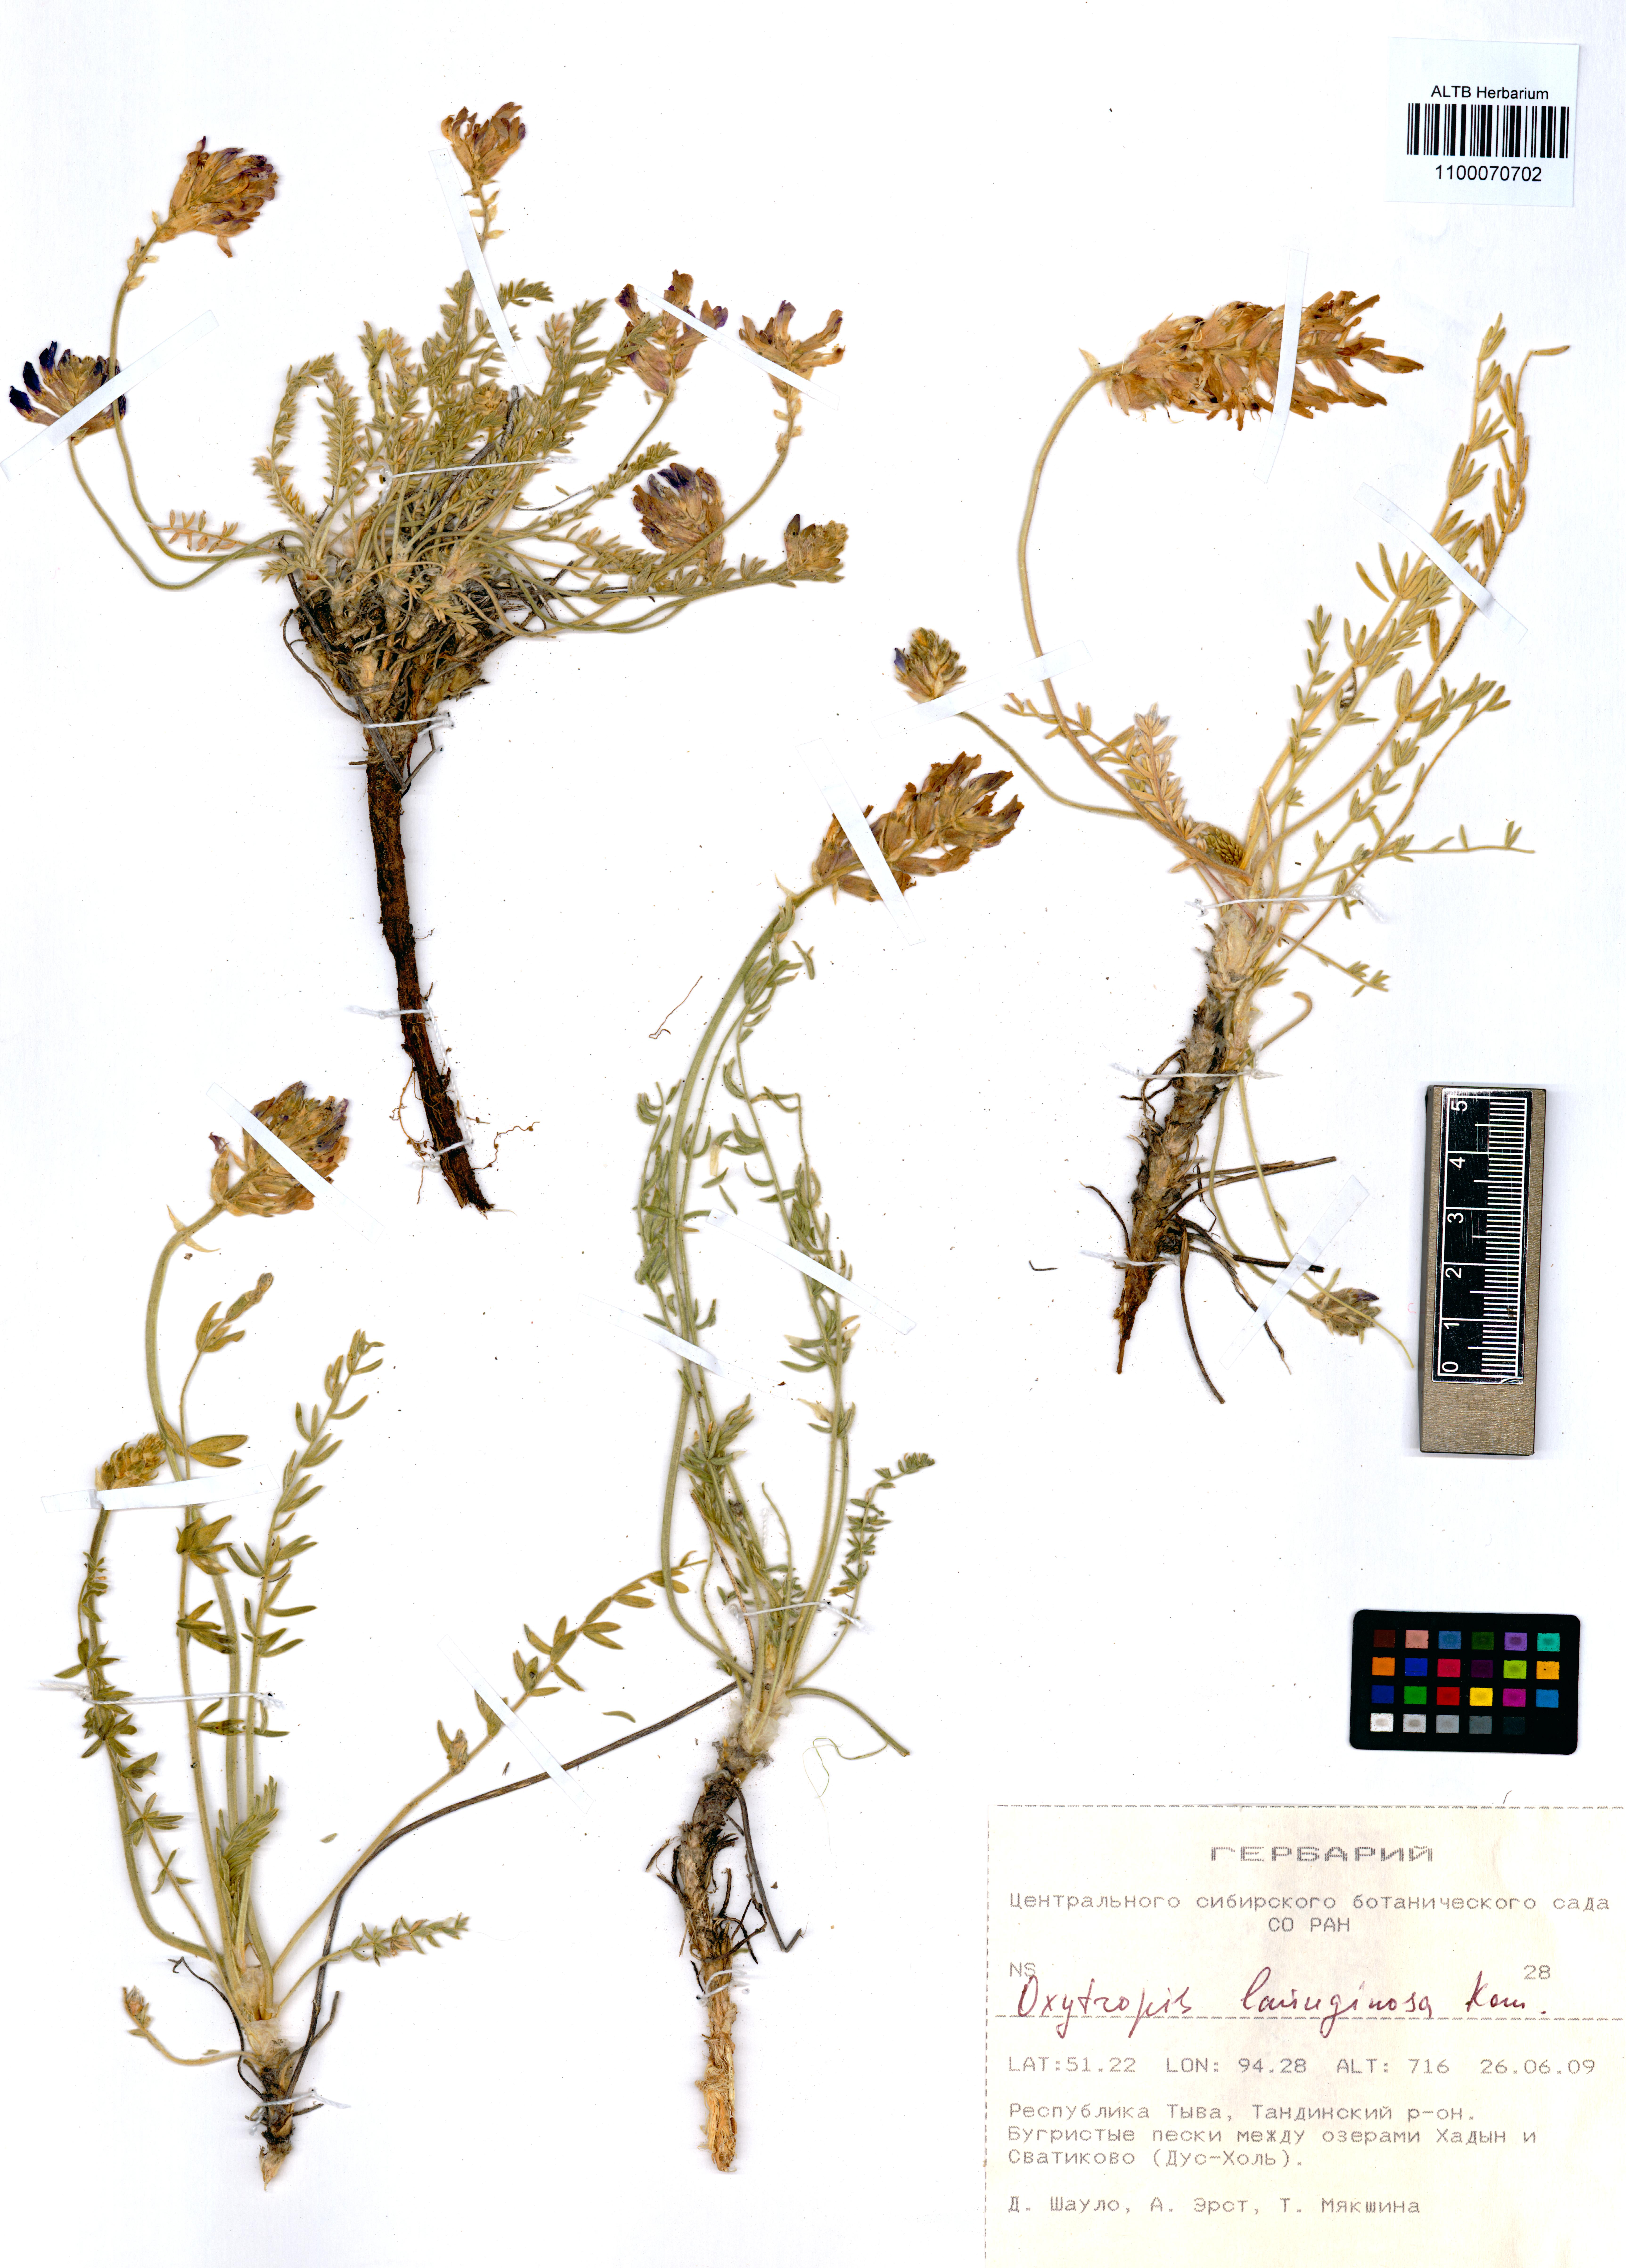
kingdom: Plantae
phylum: Tracheophyta
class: Magnoliopsida
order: Fabales
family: Fabaceae
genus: Oxytropis
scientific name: Oxytropis lanuginosa
